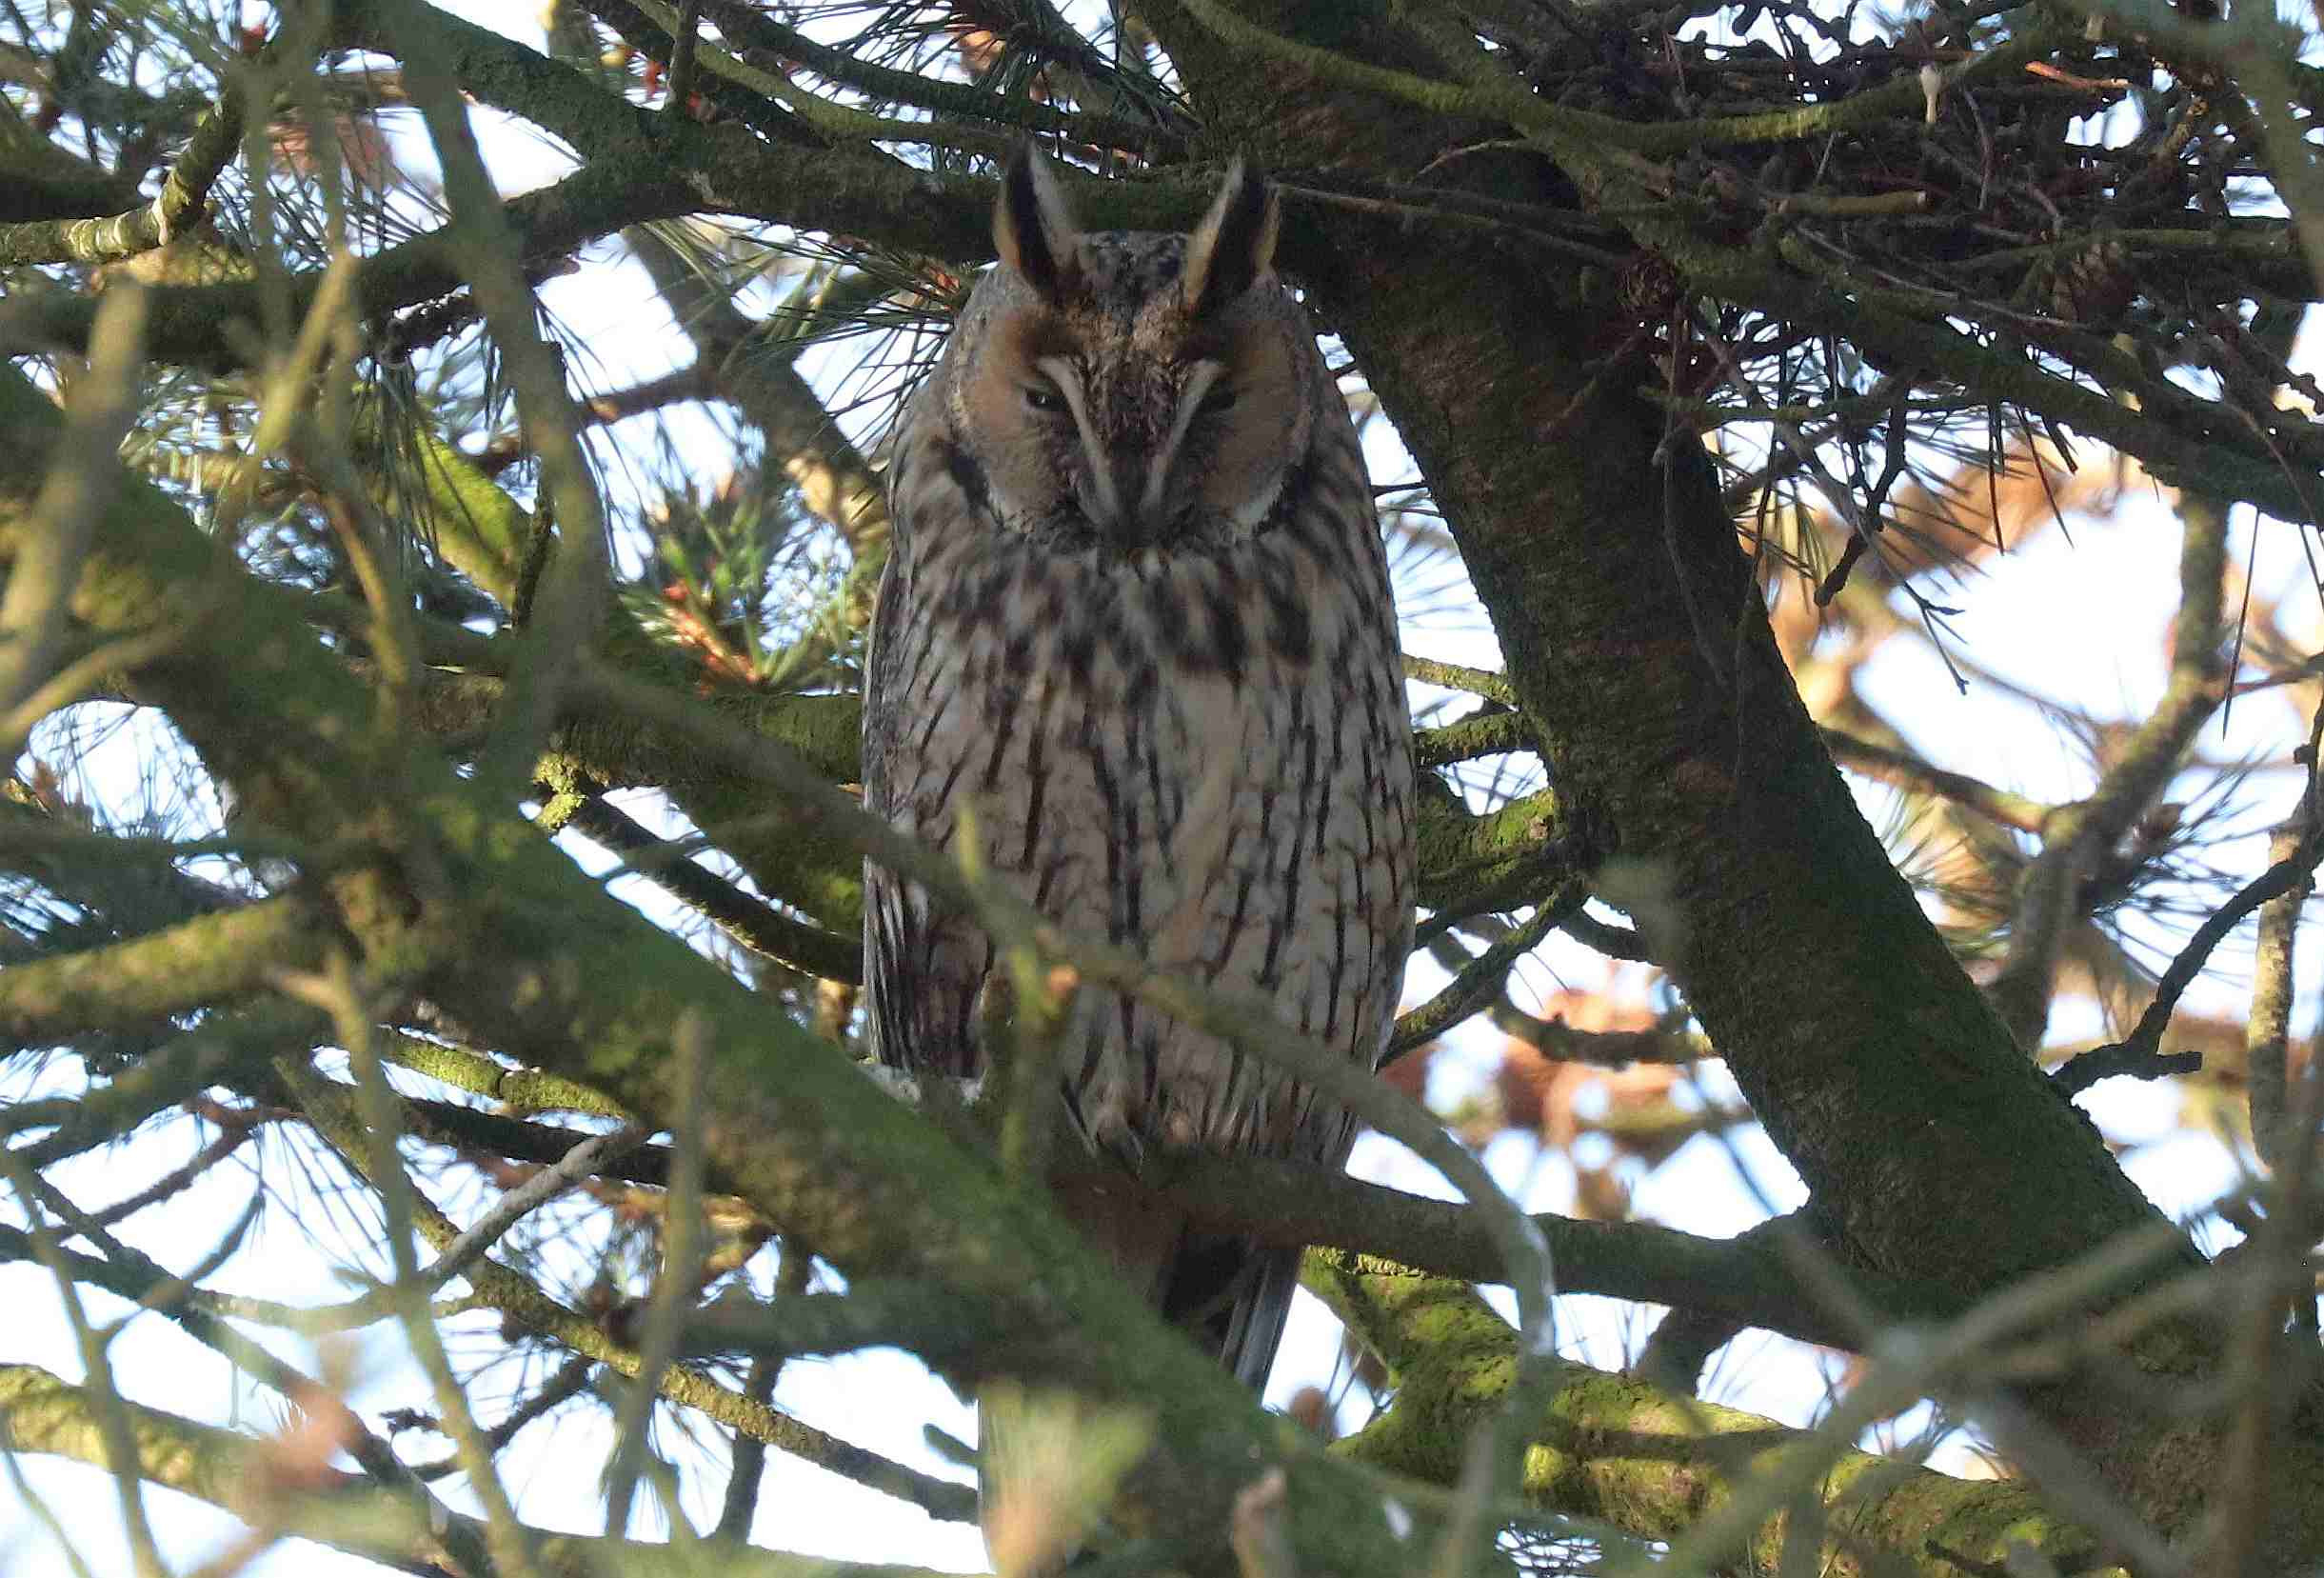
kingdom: Animalia
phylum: Chordata
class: Aves
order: Strigiformes
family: Strigidae
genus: Asio
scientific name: Asio otus
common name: Skovhornugle
